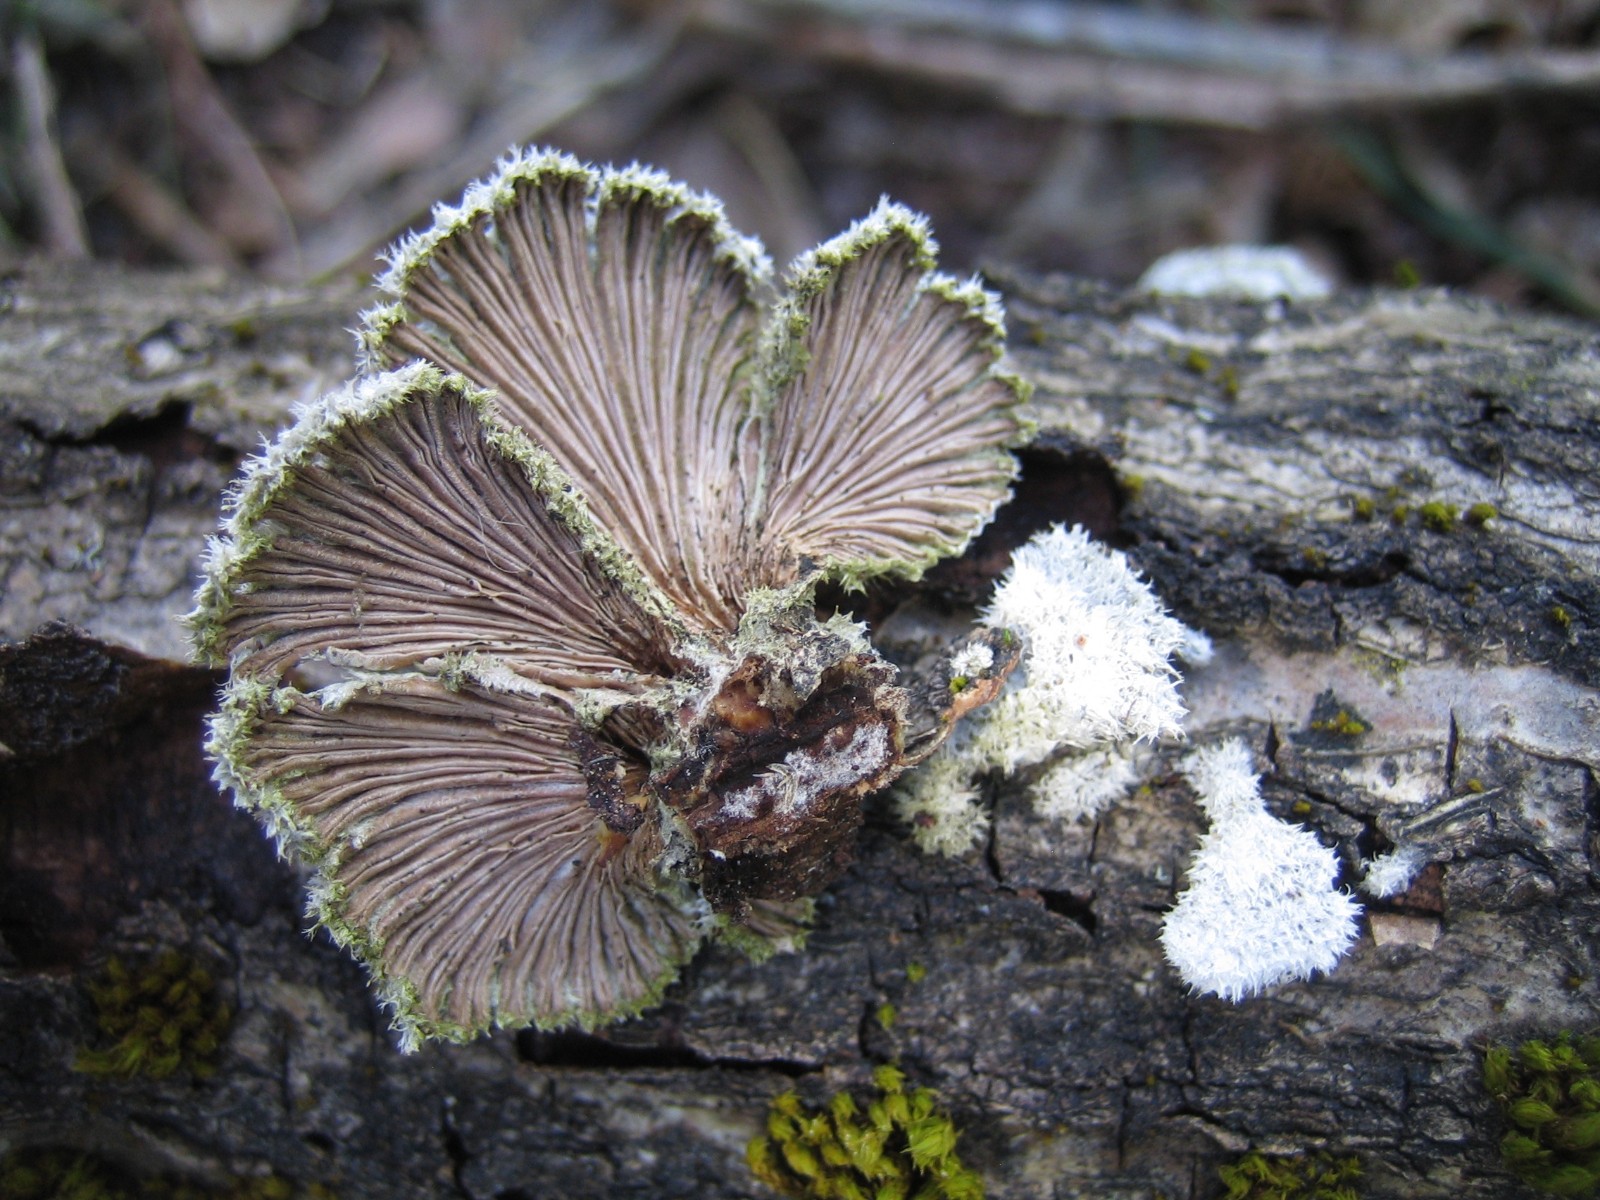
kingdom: Fungi
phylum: Basidiomycota
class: Agaricomycetes
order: Agaricales
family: Schizophyllaceae
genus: Schizophyllum
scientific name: Schizophyllum commune
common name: kløvblad
